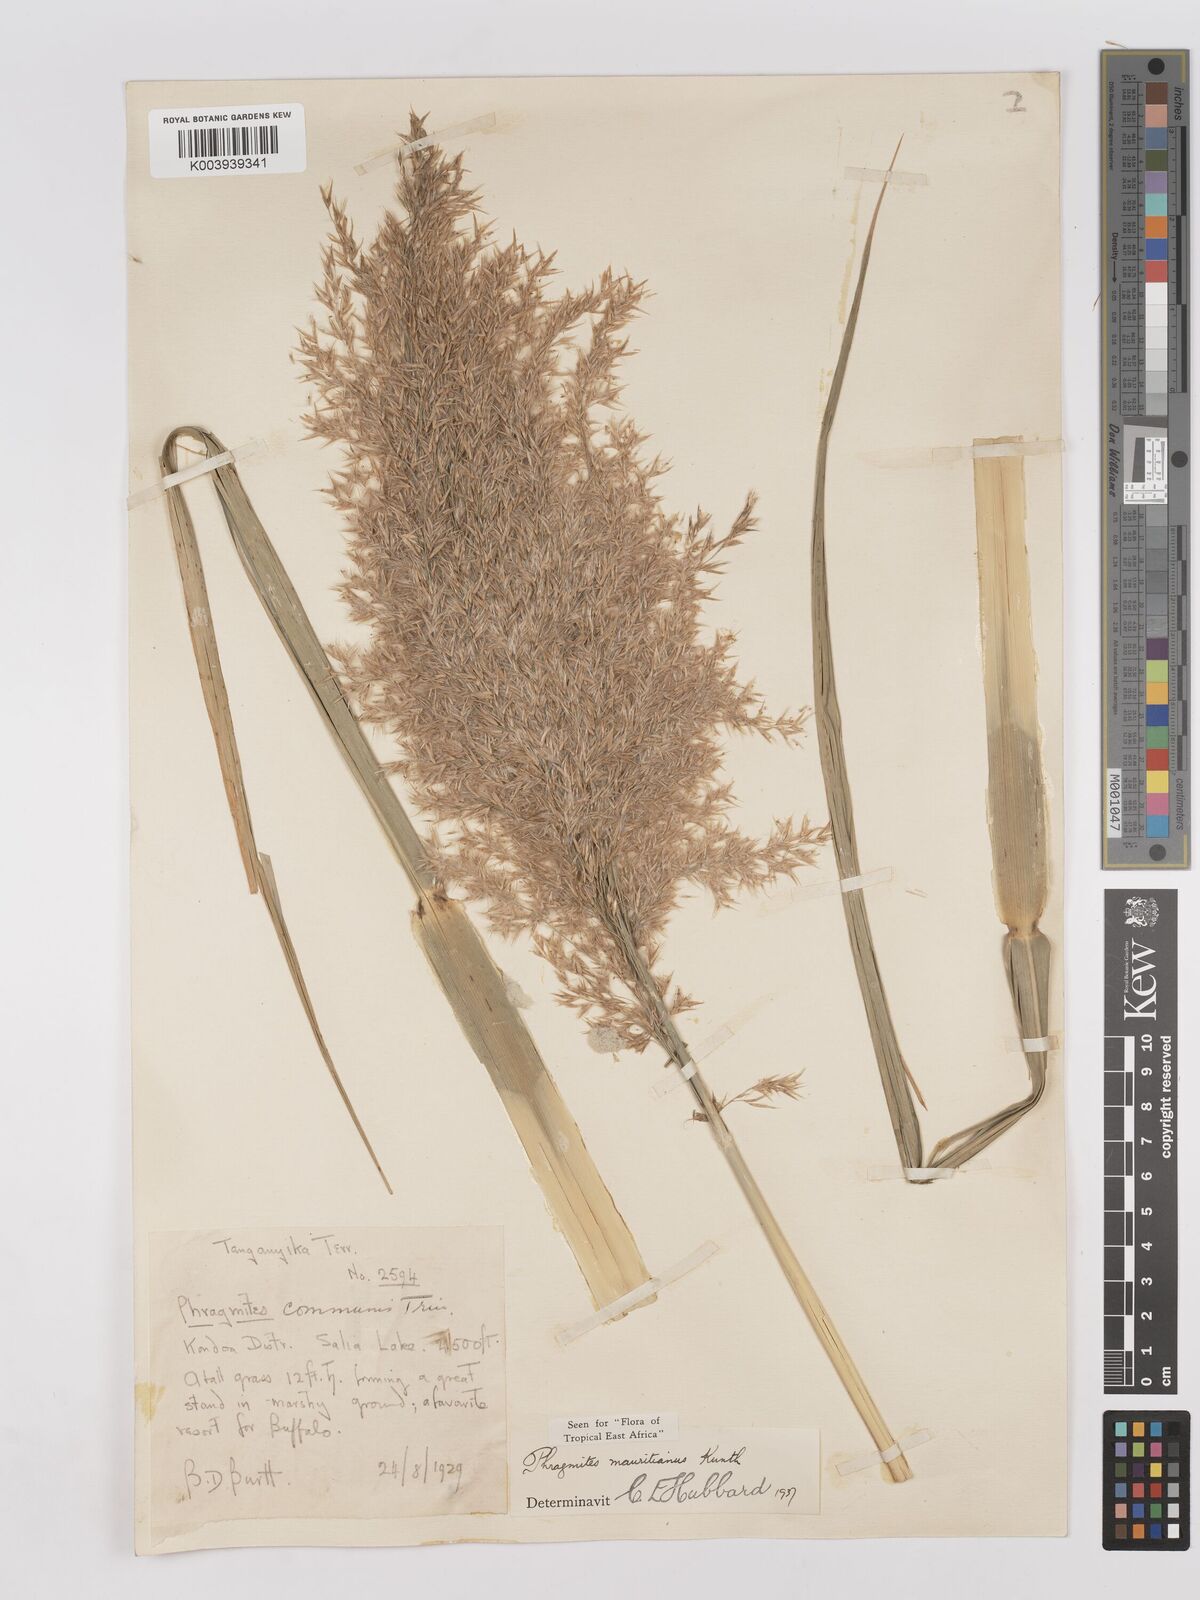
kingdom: Plantae
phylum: Tracheophyta
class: Liliopsida
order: Poales
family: Poaceae
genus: Phragmites
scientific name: Phragmites mauritianus
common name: Reed grass
